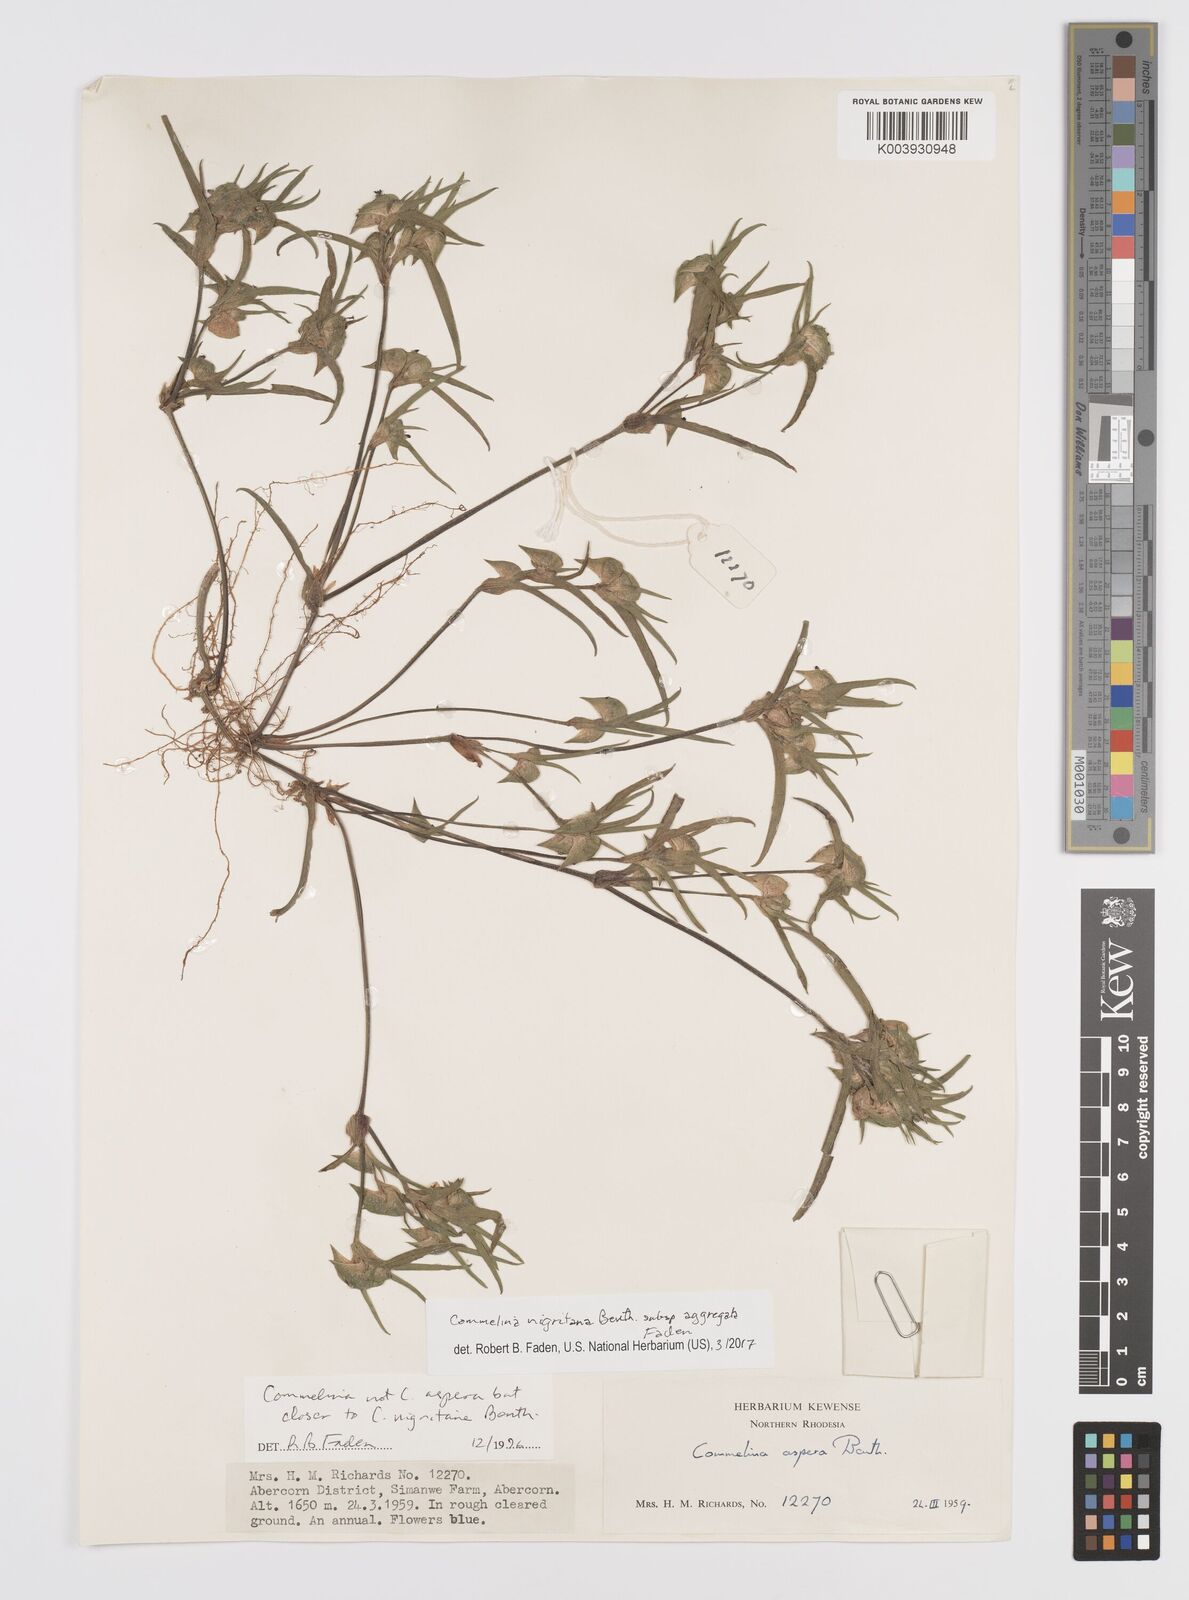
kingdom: Plantae
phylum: Tracheophyta
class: Liliopsida
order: Commelinales
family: Commelinaceae
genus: Commelina
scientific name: Commelina nigritana
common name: African dayflower
